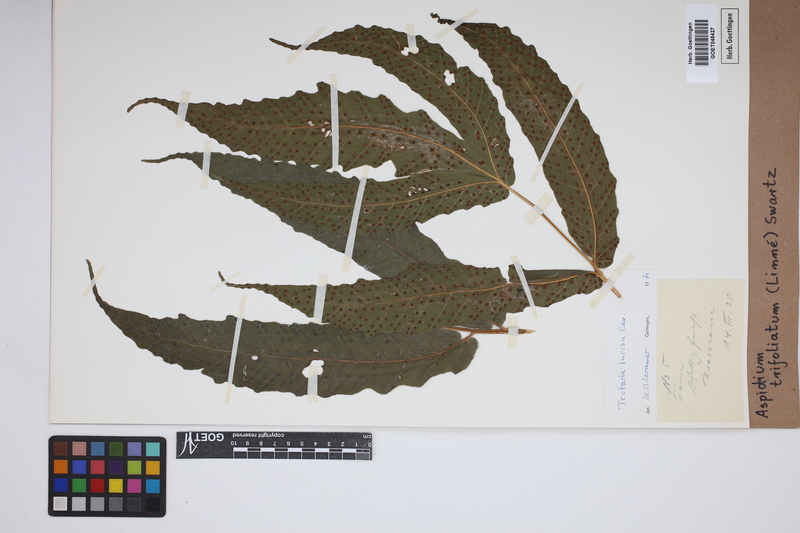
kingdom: Plantae
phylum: Tracheophyta
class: Polypodiopsida
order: Polypodiales
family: Tectariaceae
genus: Tectaria
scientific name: Tectaria incisa
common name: Incised halberd fern
